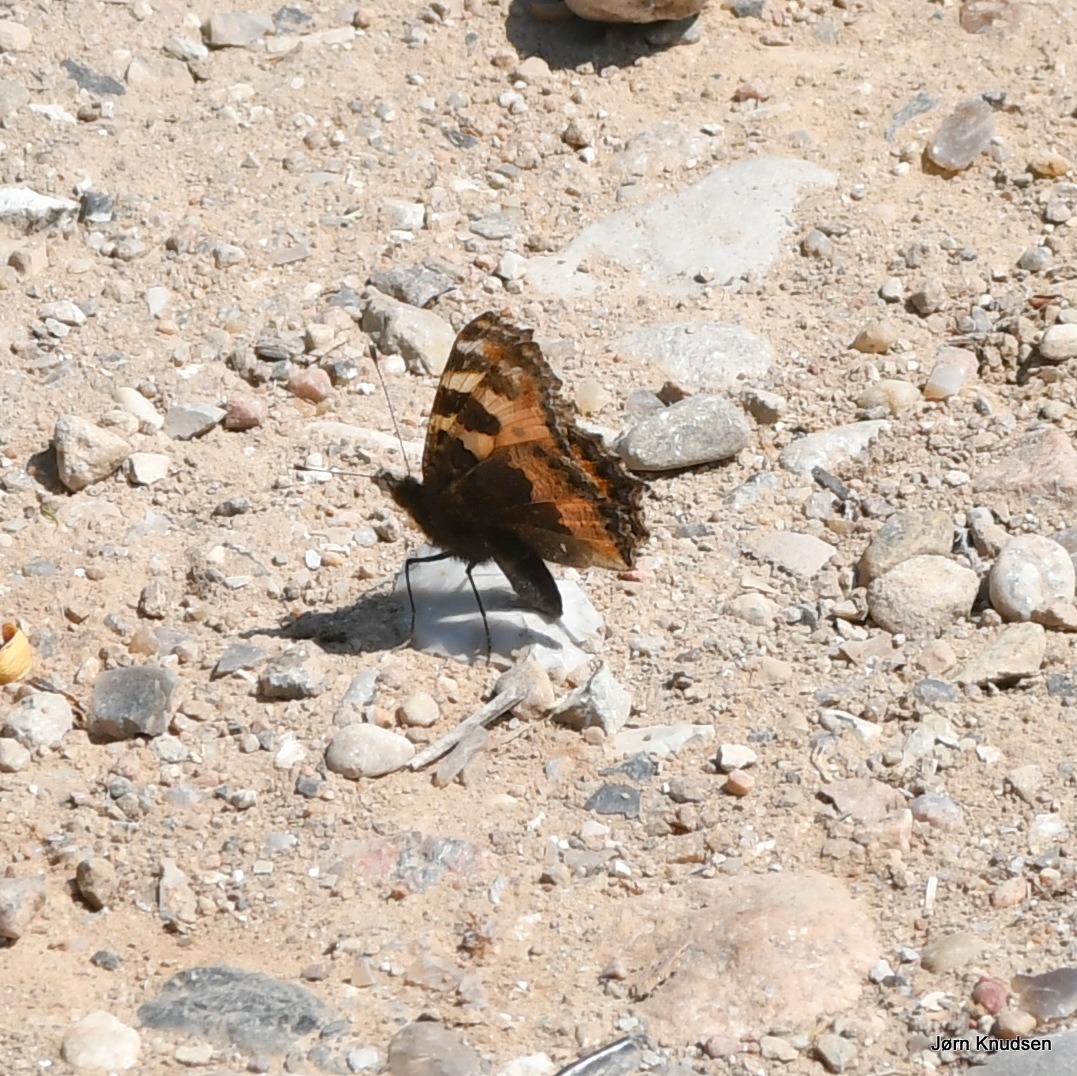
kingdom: Animalia
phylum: Arthropoda
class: Insecta
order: Lepidoptera
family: Nymphalidae
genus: Aglais
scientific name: Aglais urticae
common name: Nældens takvinge
